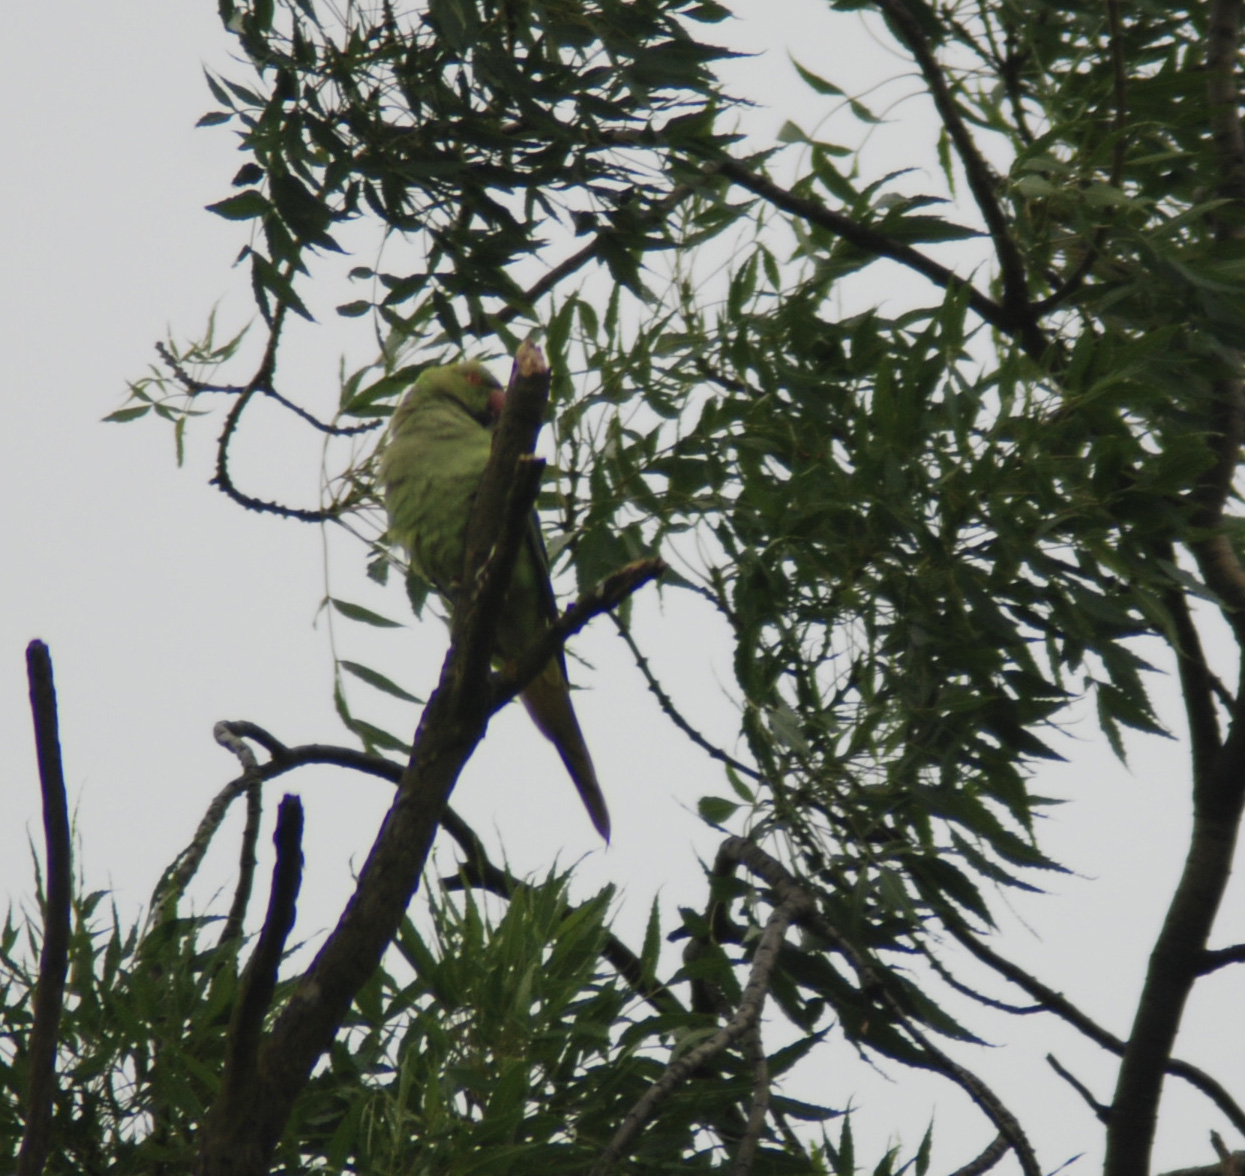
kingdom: Animalia
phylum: Chordata
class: Aves
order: Psittaciformes
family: Psittacidae
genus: Psittacula
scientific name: Psittacula krameri
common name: Rose-ringed parakeet
